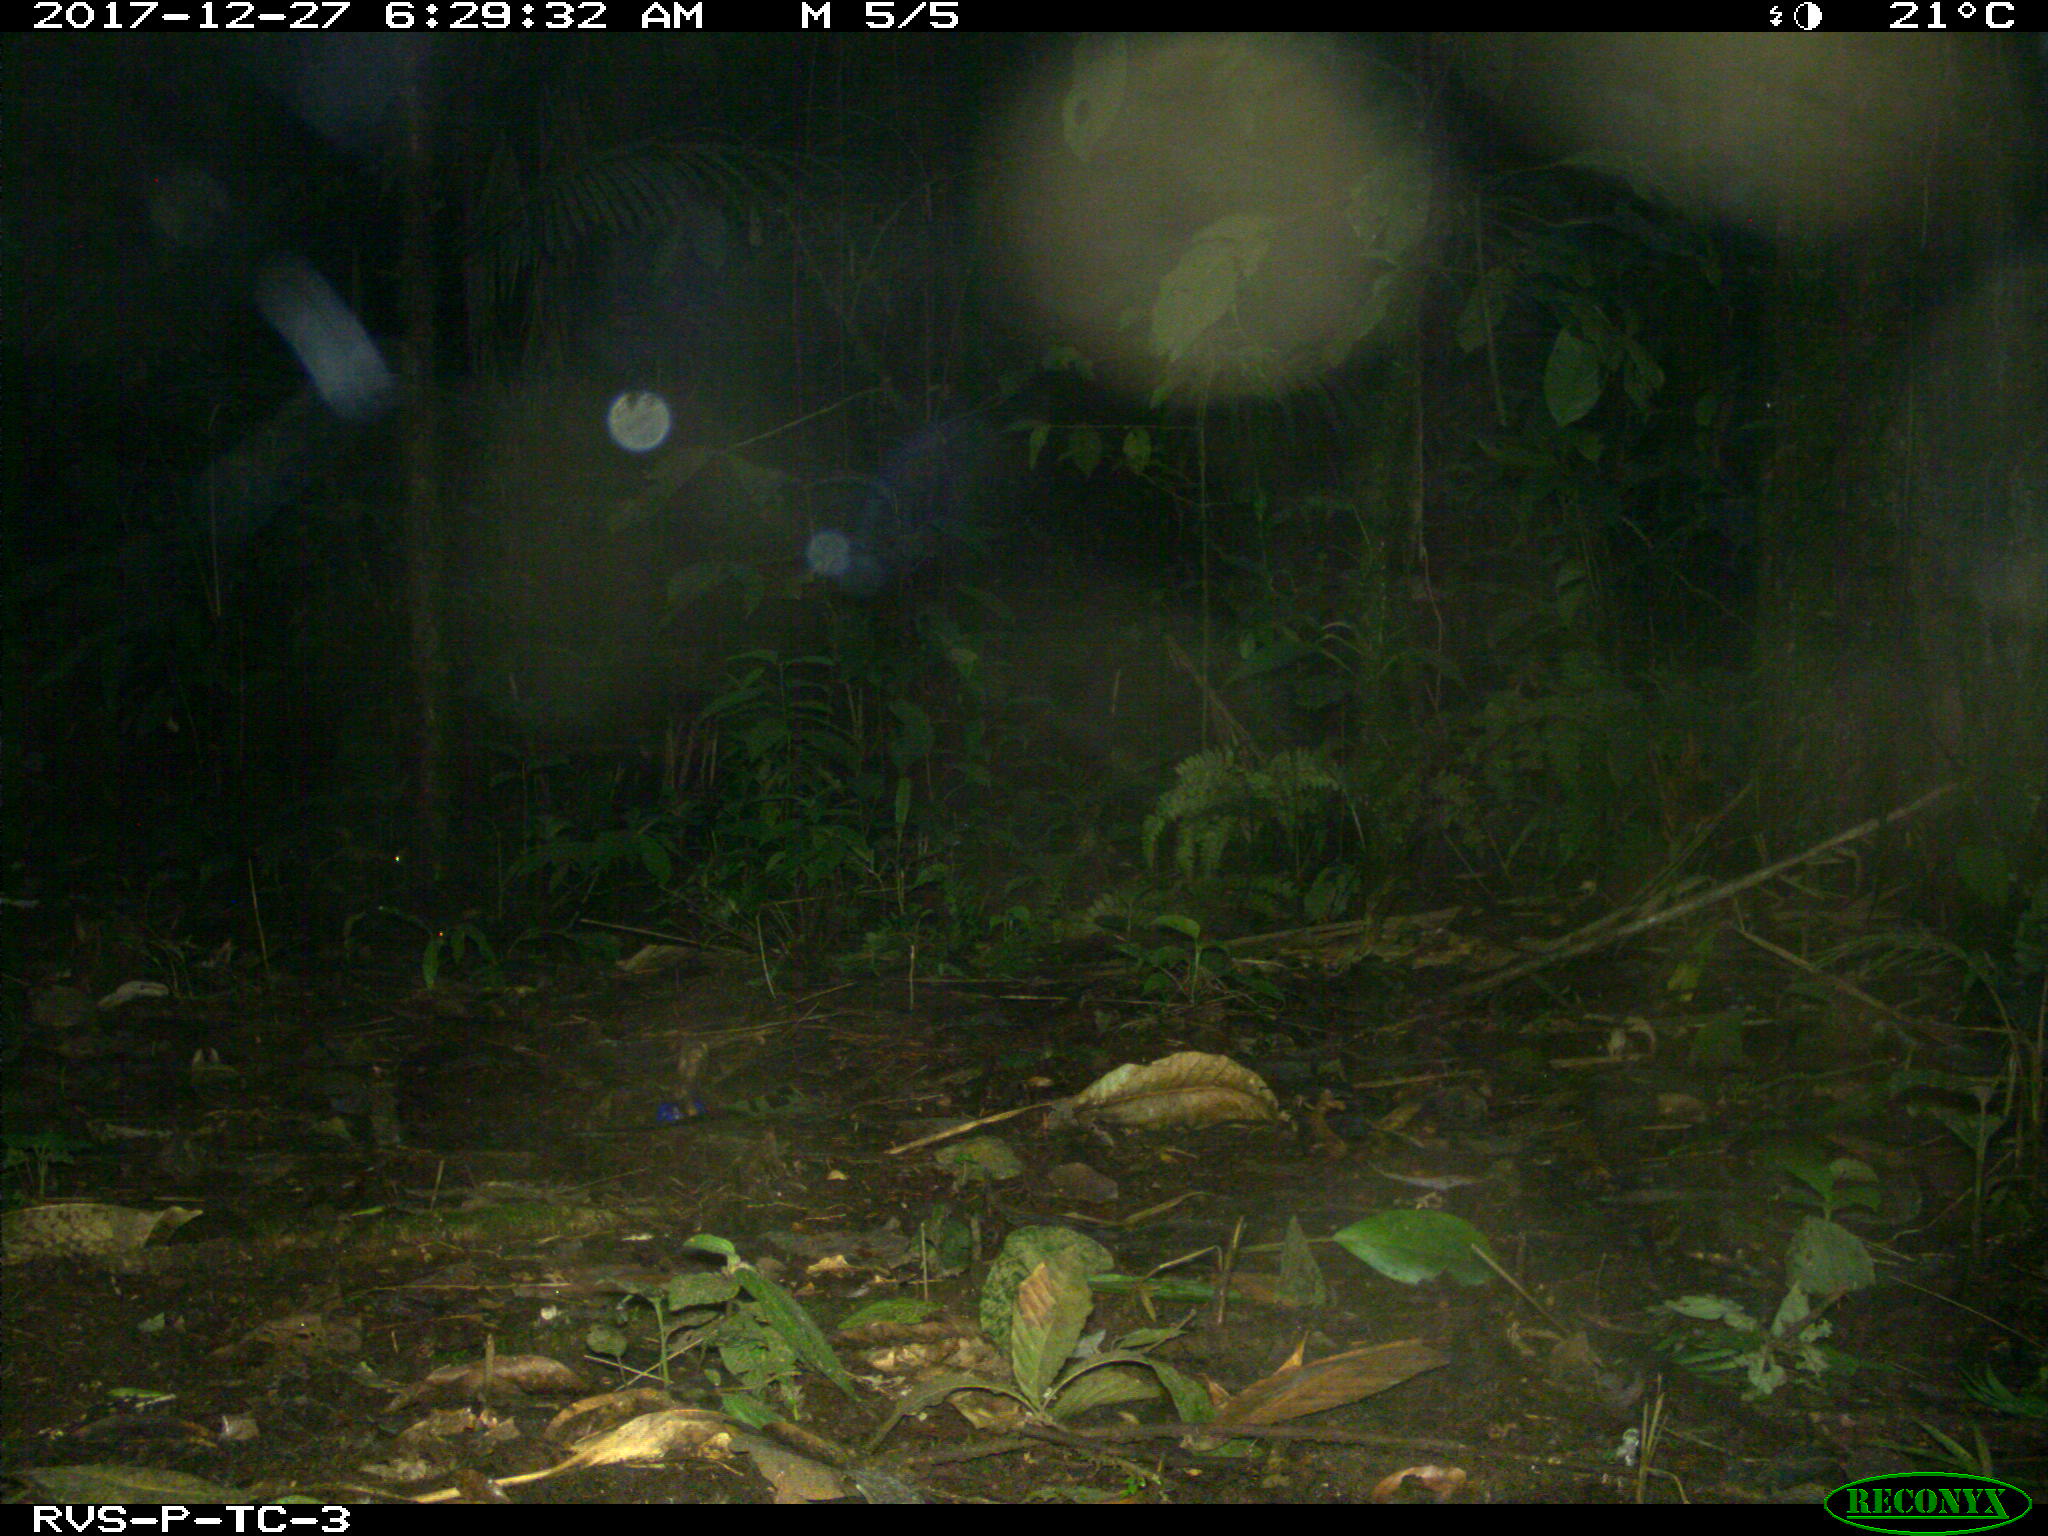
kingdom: Animalia
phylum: Chordata
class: Mammalia
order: Rodentia
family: Dasyproctidae
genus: Dasyprocta
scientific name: Dasyprocta punctata
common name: Central american agouti
